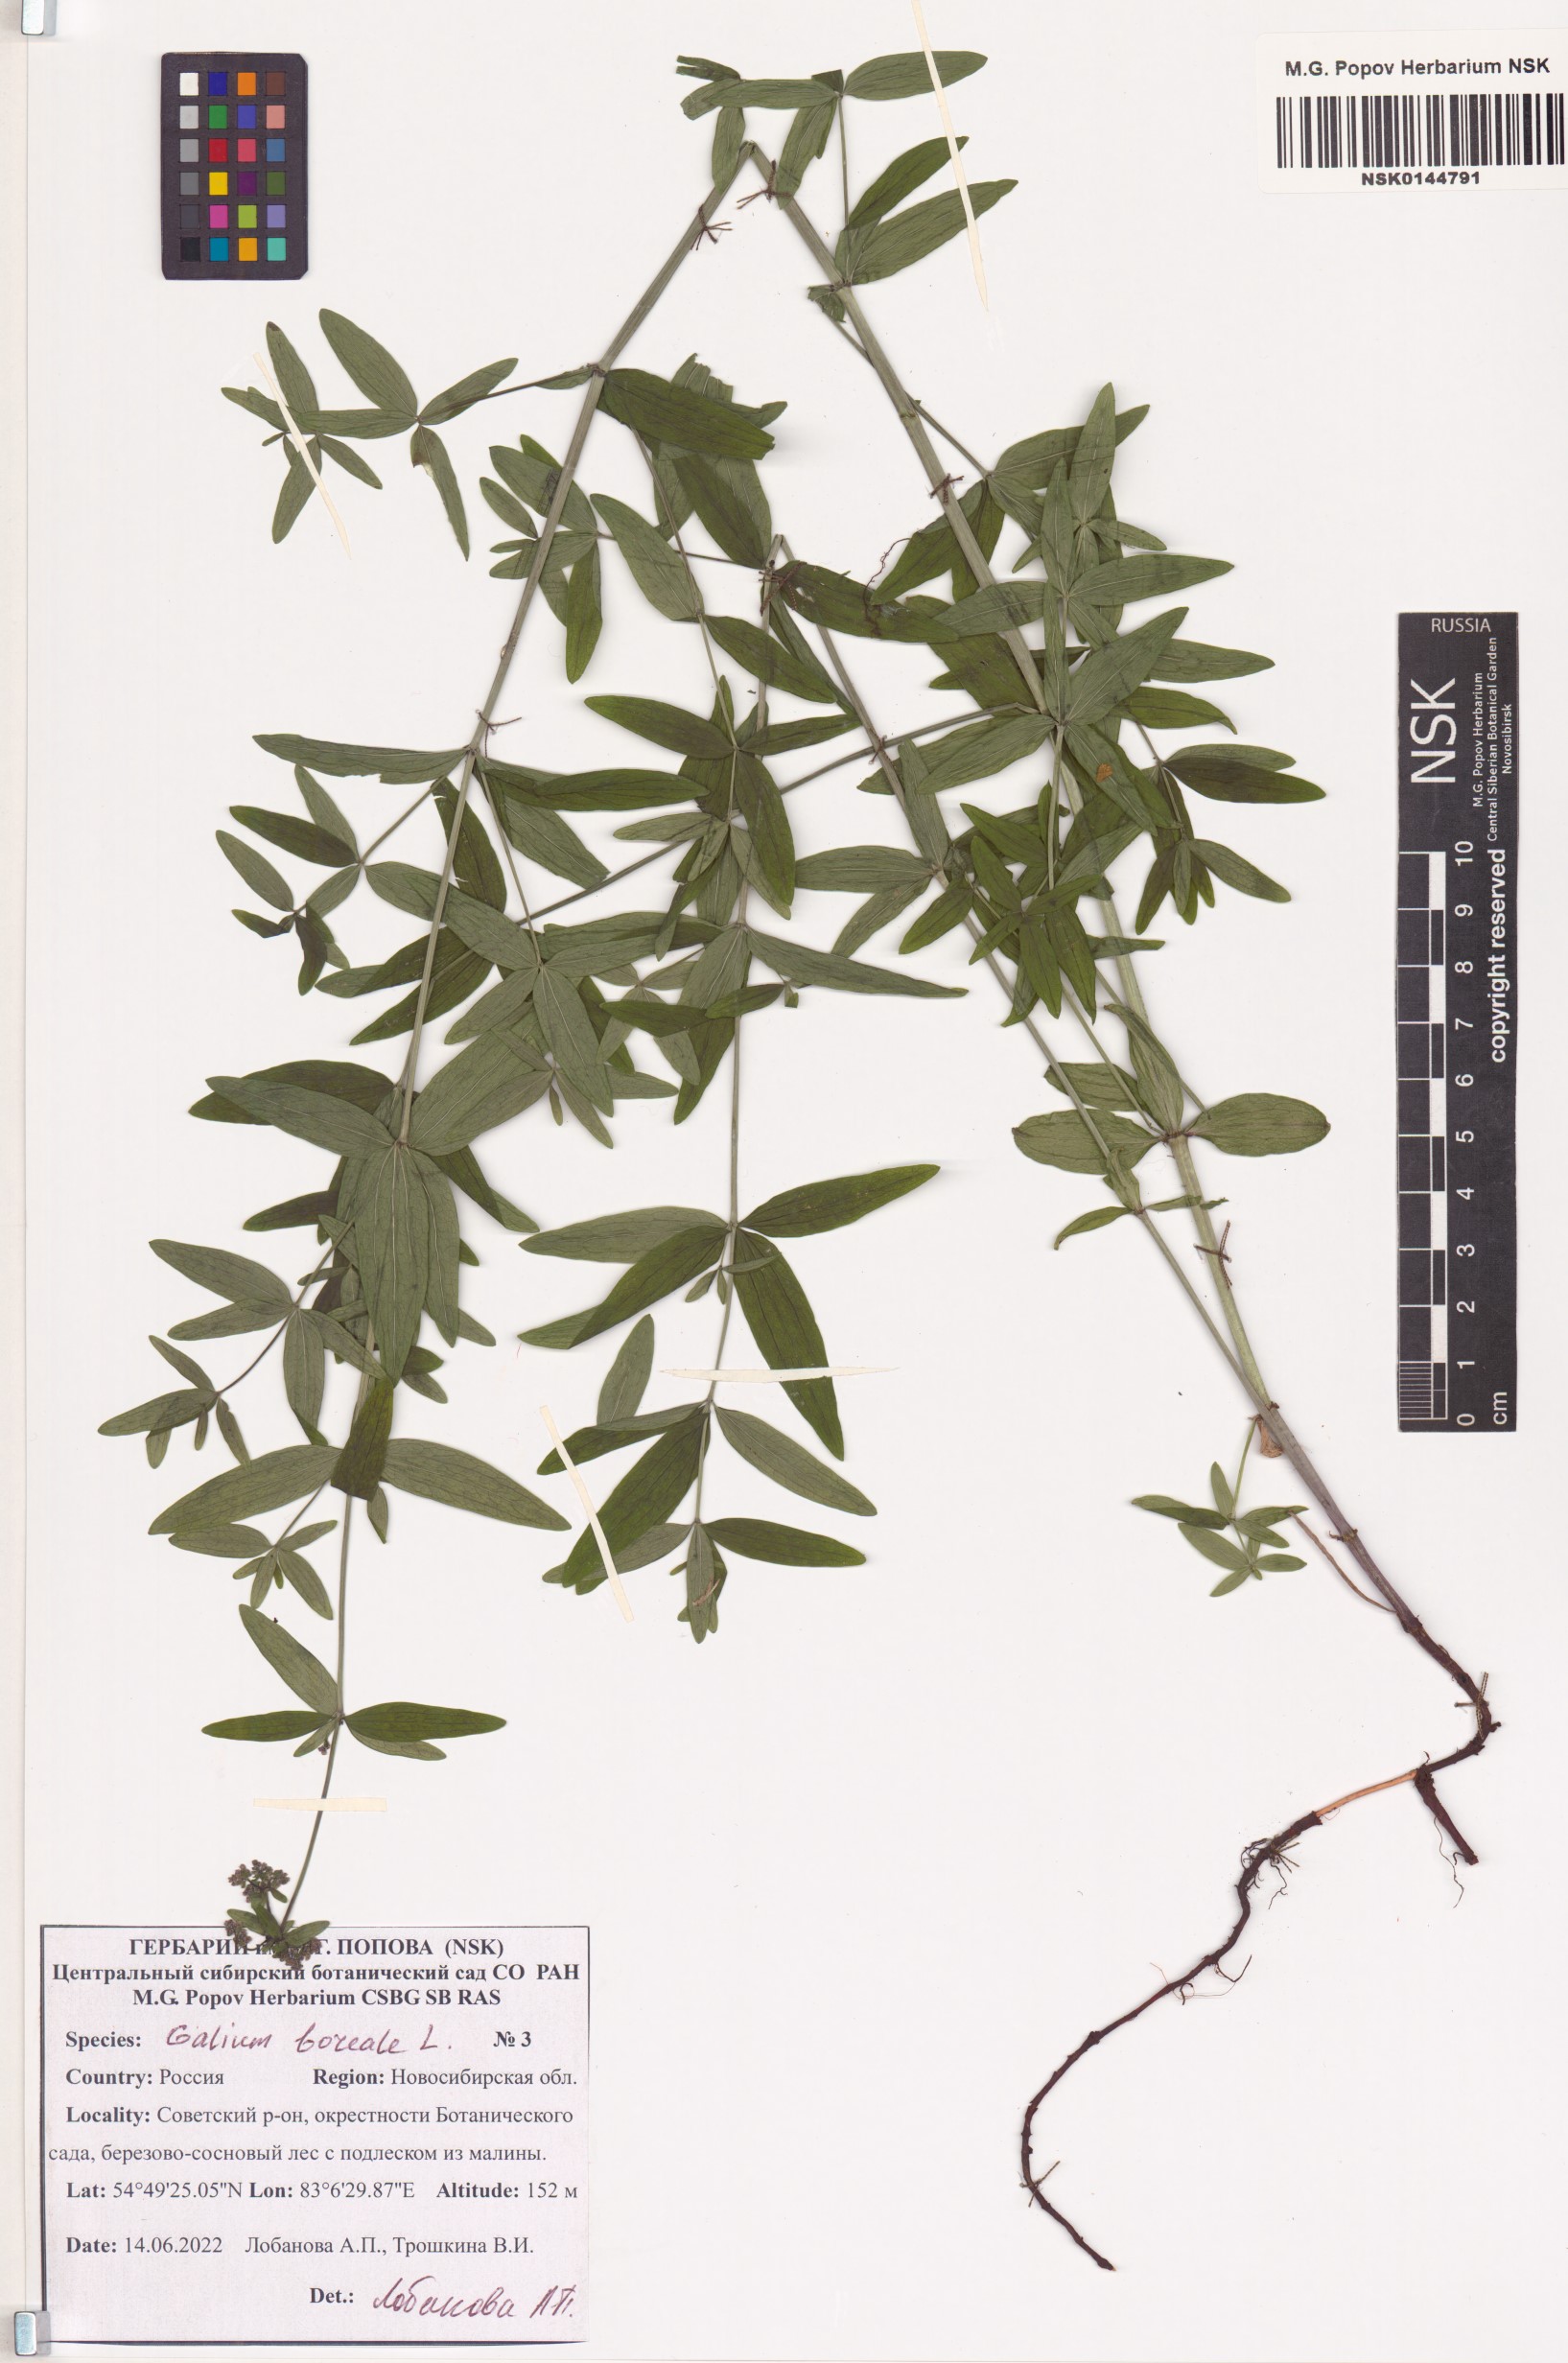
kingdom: Plantae
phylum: Tracheophyta
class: Magnoliopsida
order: Gentianales
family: Rubiaceae
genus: Galium
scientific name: Galium boreale
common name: Northern bedstraw
